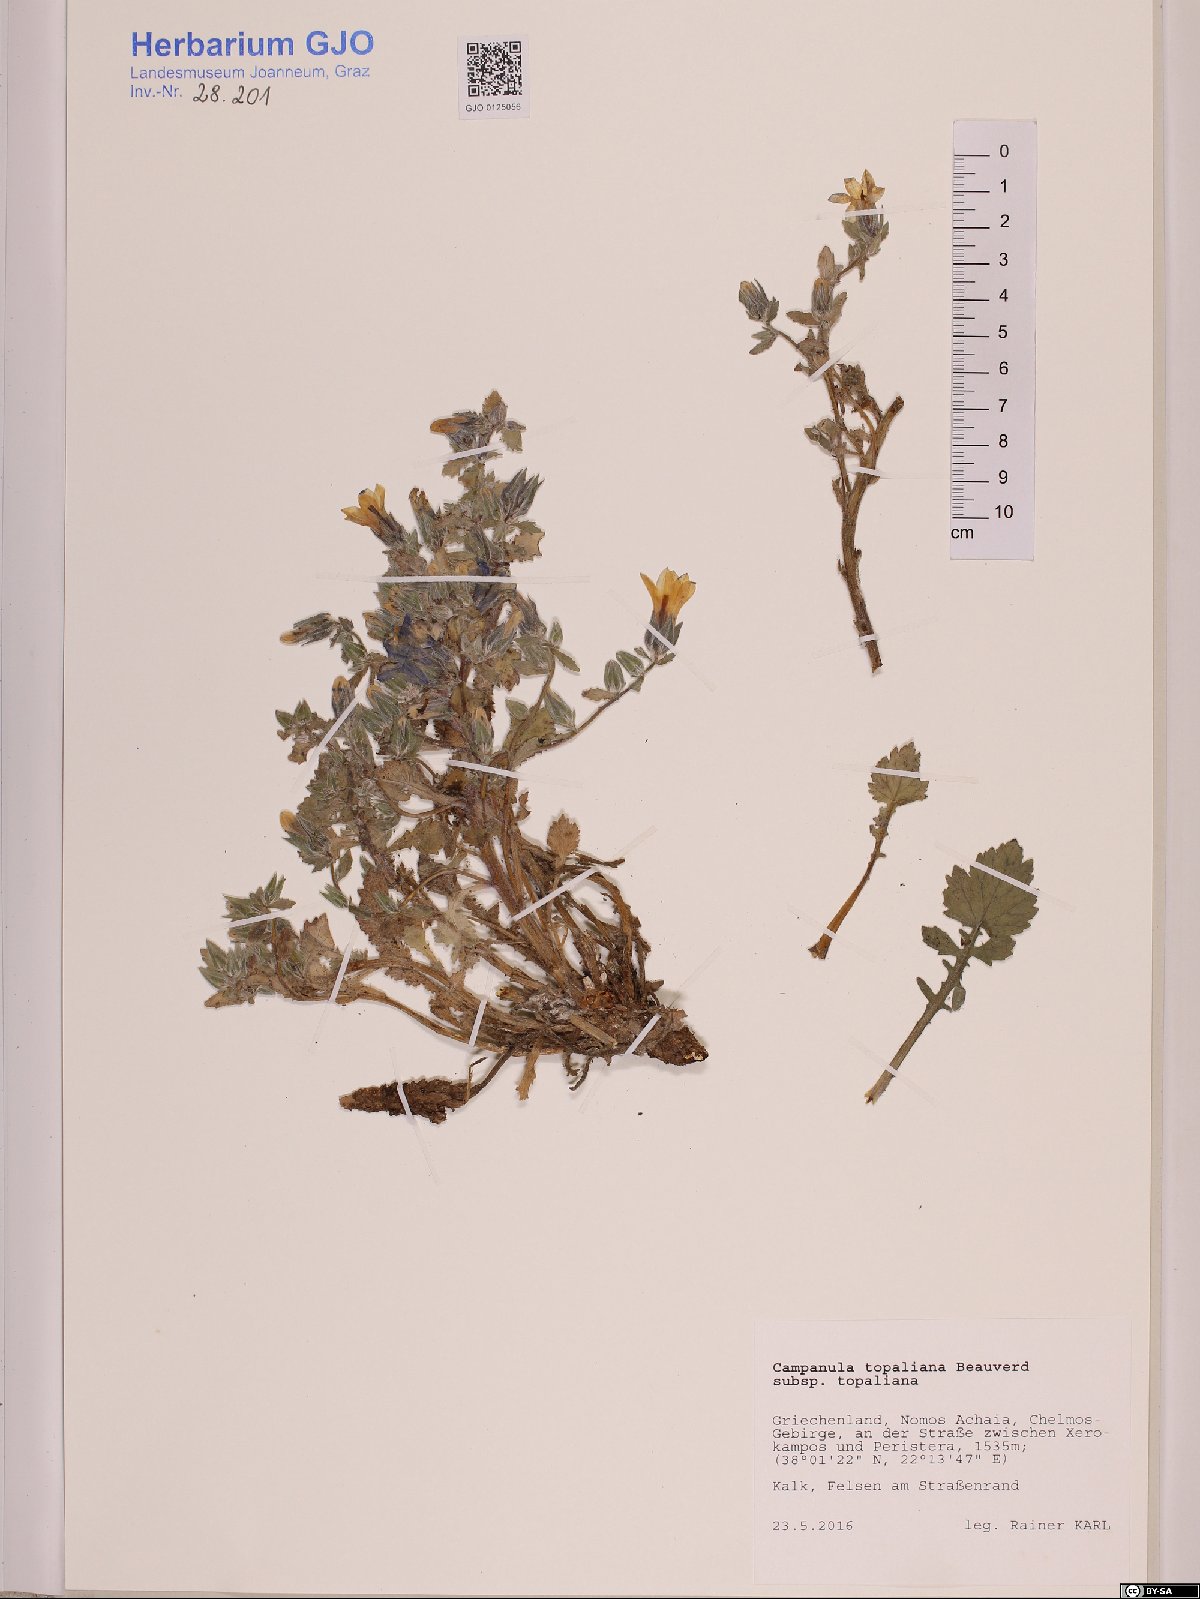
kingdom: Plantae
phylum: Tracheophyta
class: Magnoliopsida
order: Asterales
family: Campanulaceae
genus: Campanula
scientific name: Campanula topaliana
